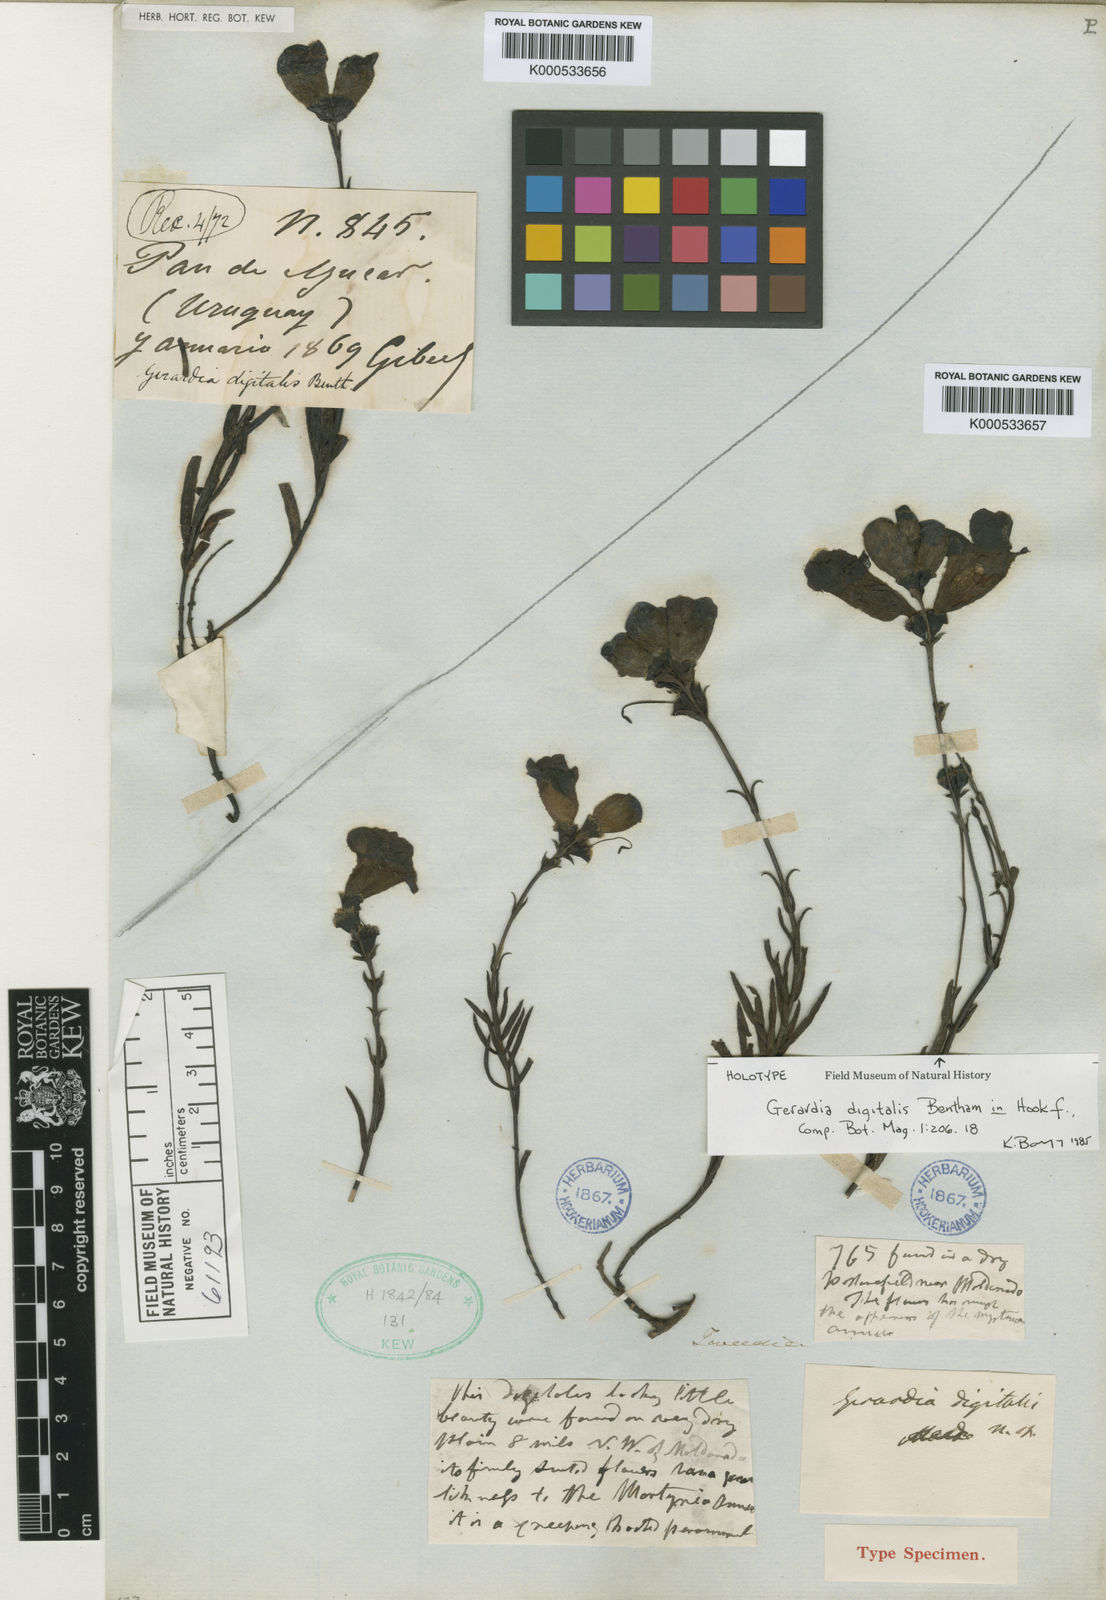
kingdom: Plantae
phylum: Tracheophyta
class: Magnoliopsida
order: Lamiales
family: Orobanchaceae
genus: Agalinis
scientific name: Agalinis digitalis
